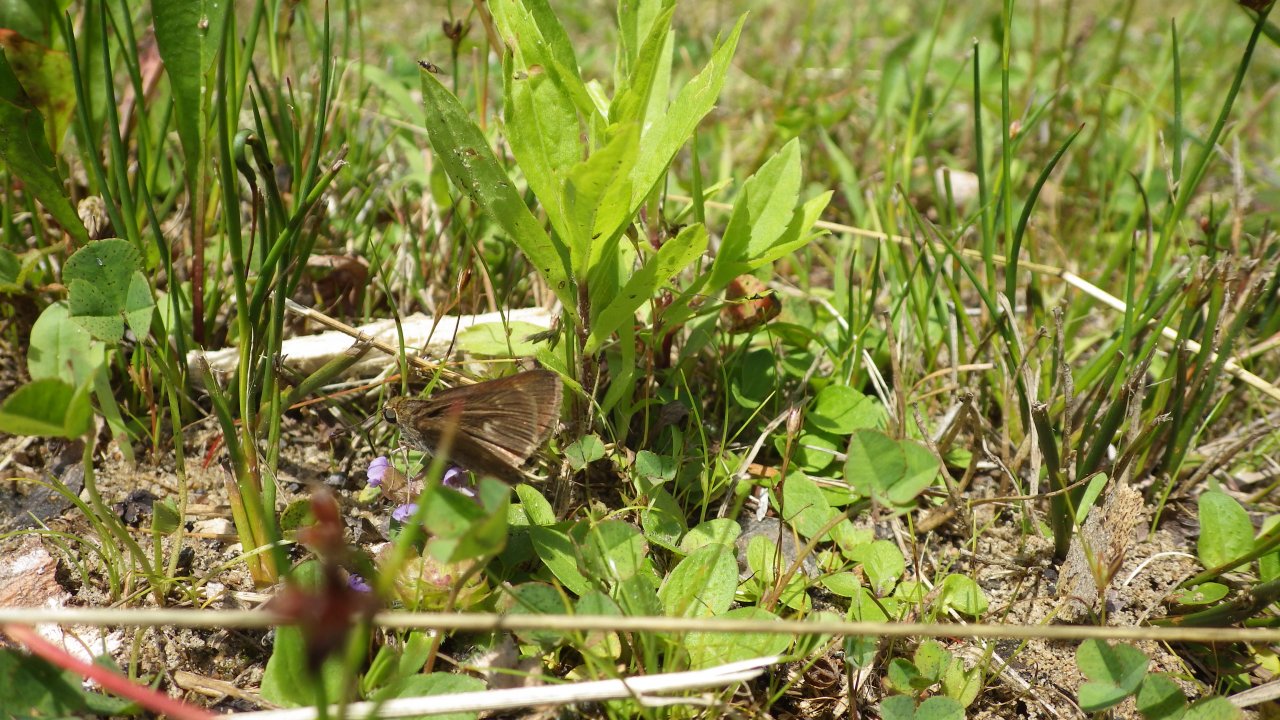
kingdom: Animalia
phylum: Arthropoda
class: Insecta
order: Lepidoptera
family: Hesperiidae
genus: Polites
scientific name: Polites egeremet
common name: Northern Broken-Dash
